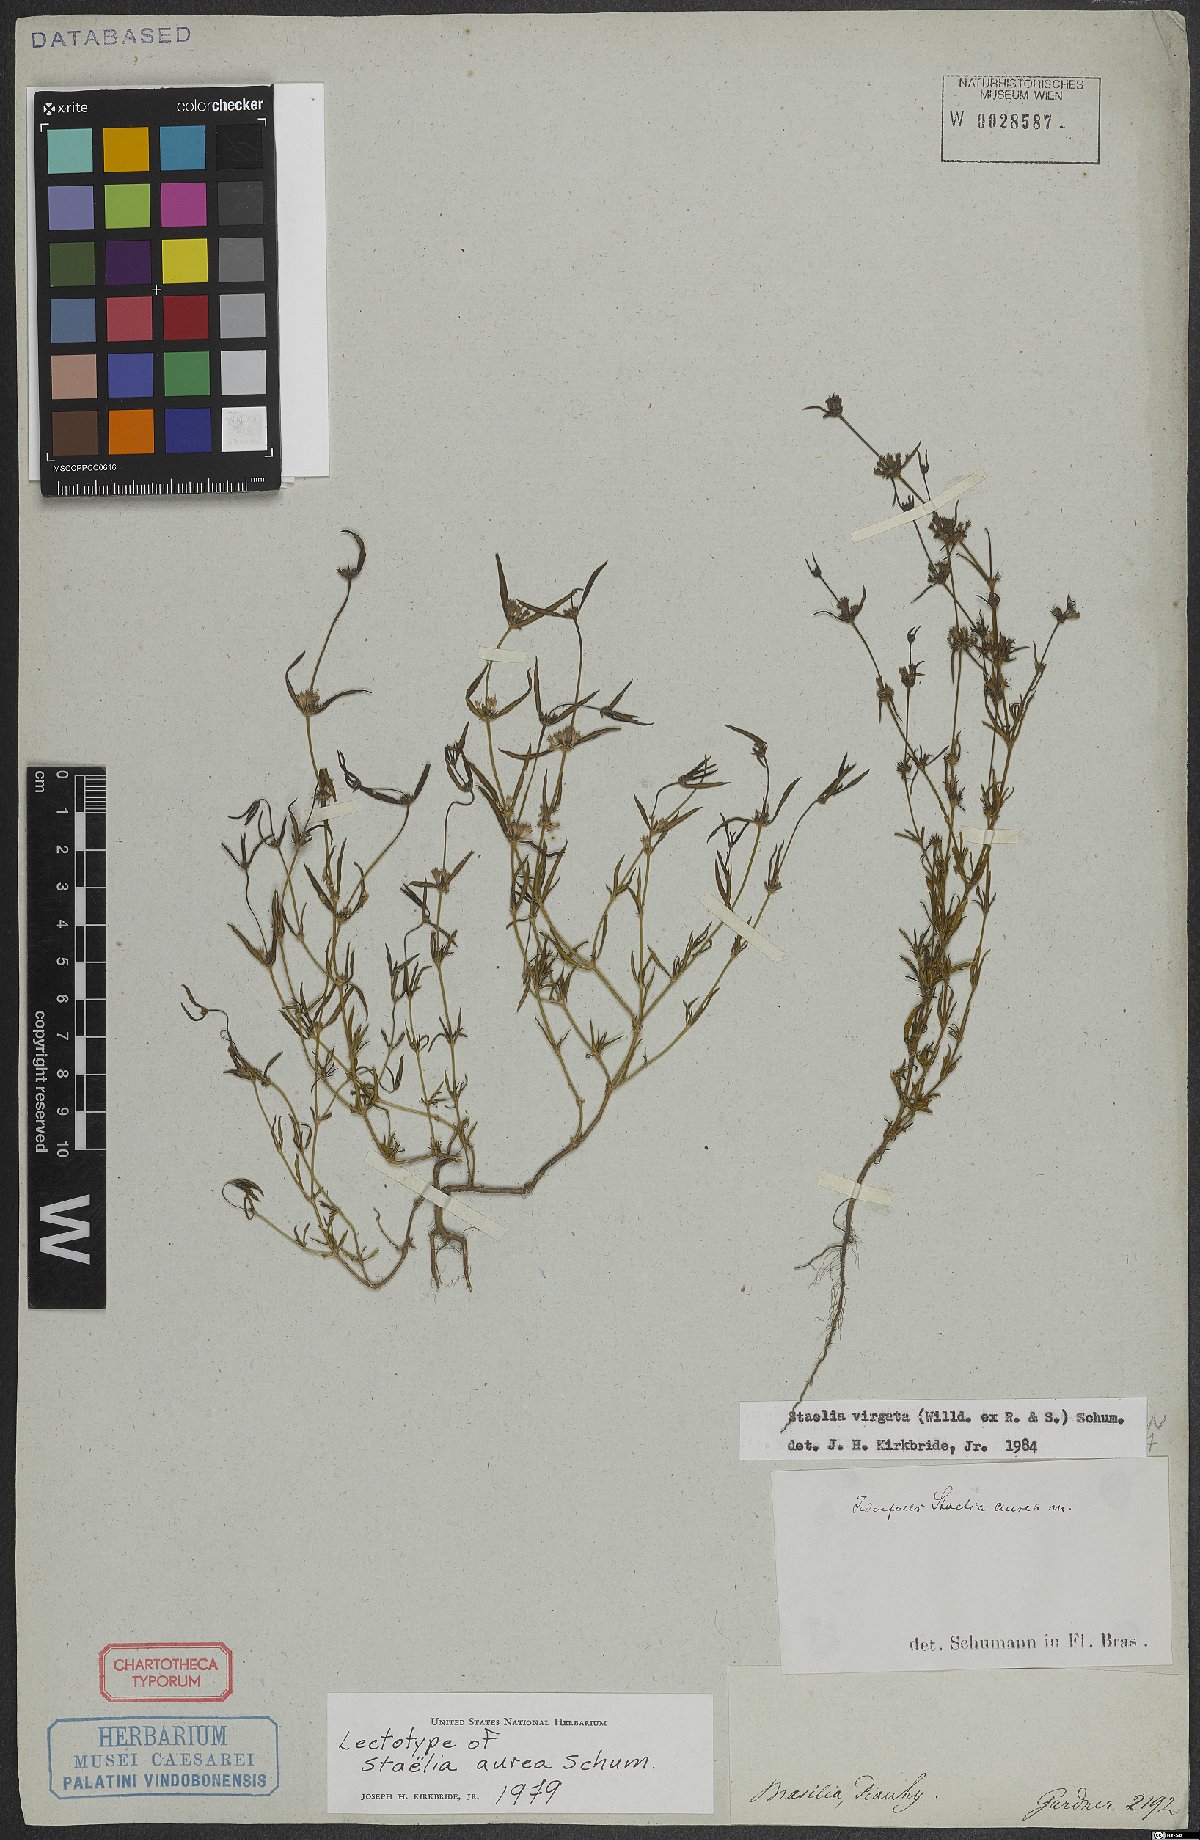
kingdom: Plantae
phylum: Tracheophyta
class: Magnoliopsida
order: Gentianales
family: Rubiaceae
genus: Staelia
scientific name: Staelia aurea
